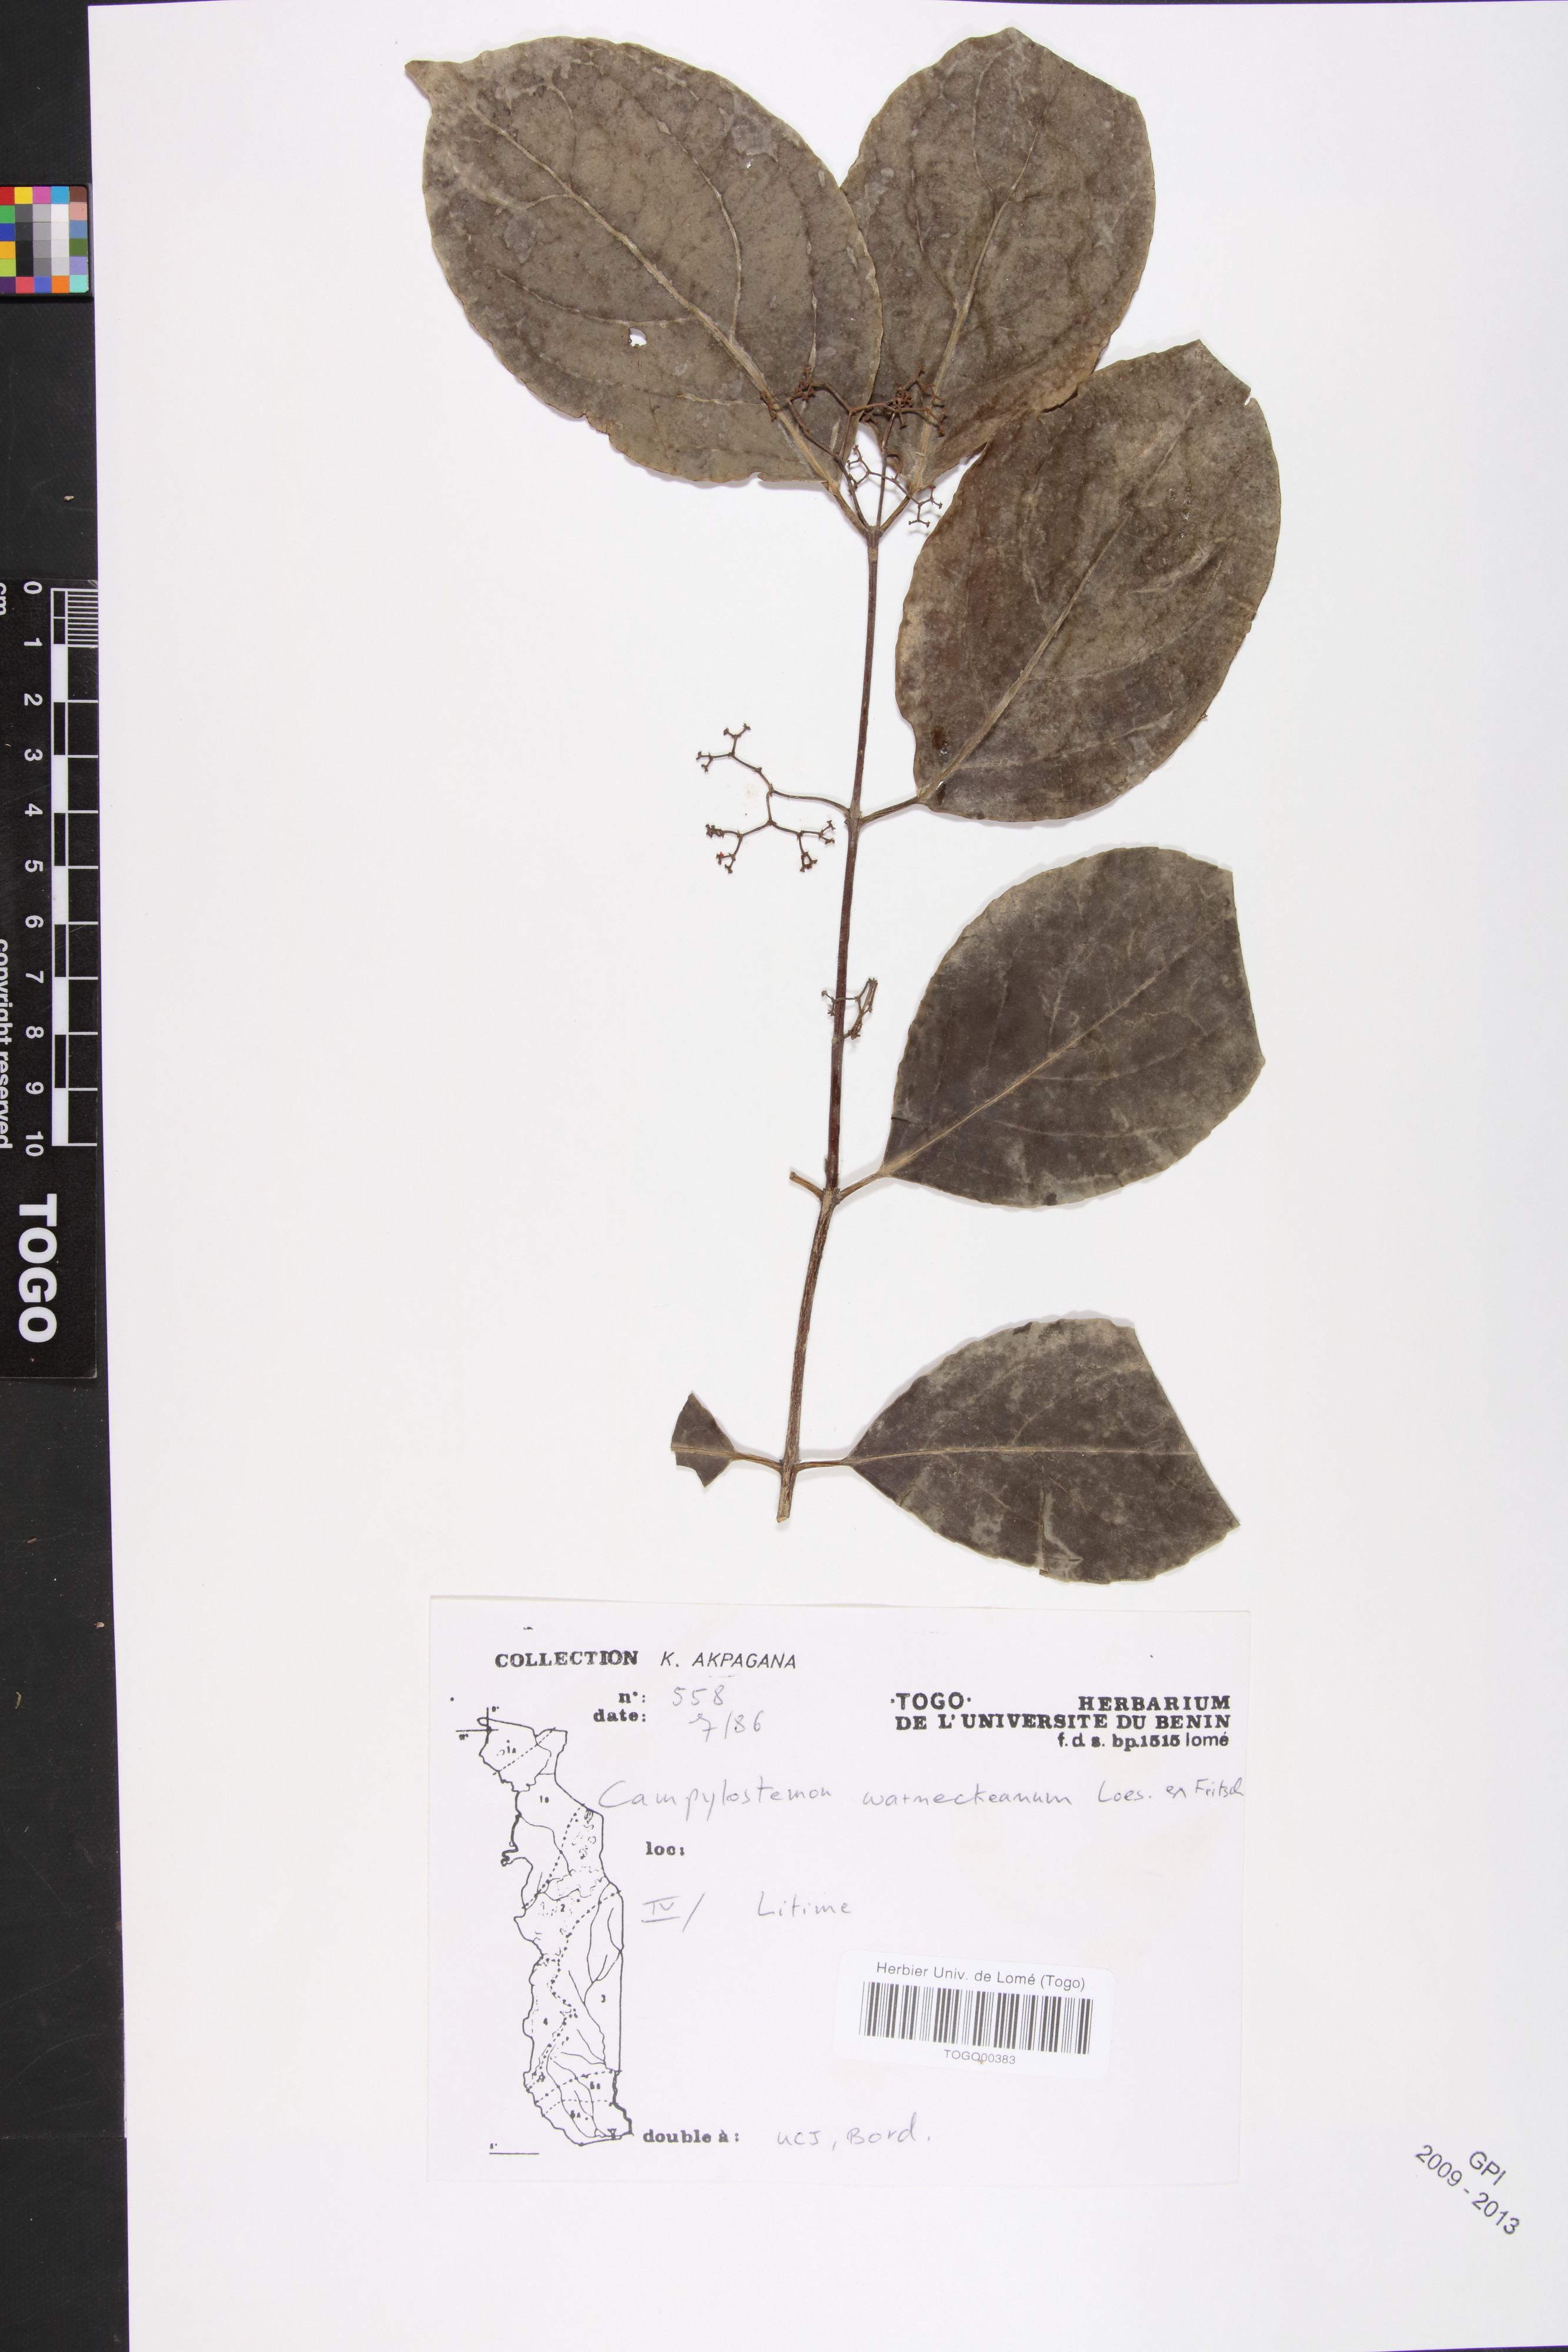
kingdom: Plantae
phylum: Tracheophyta
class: Magnoliopsida
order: Celastrales
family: Celastraceae
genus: Campylostemon
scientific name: Campylostemon warneckeanus
